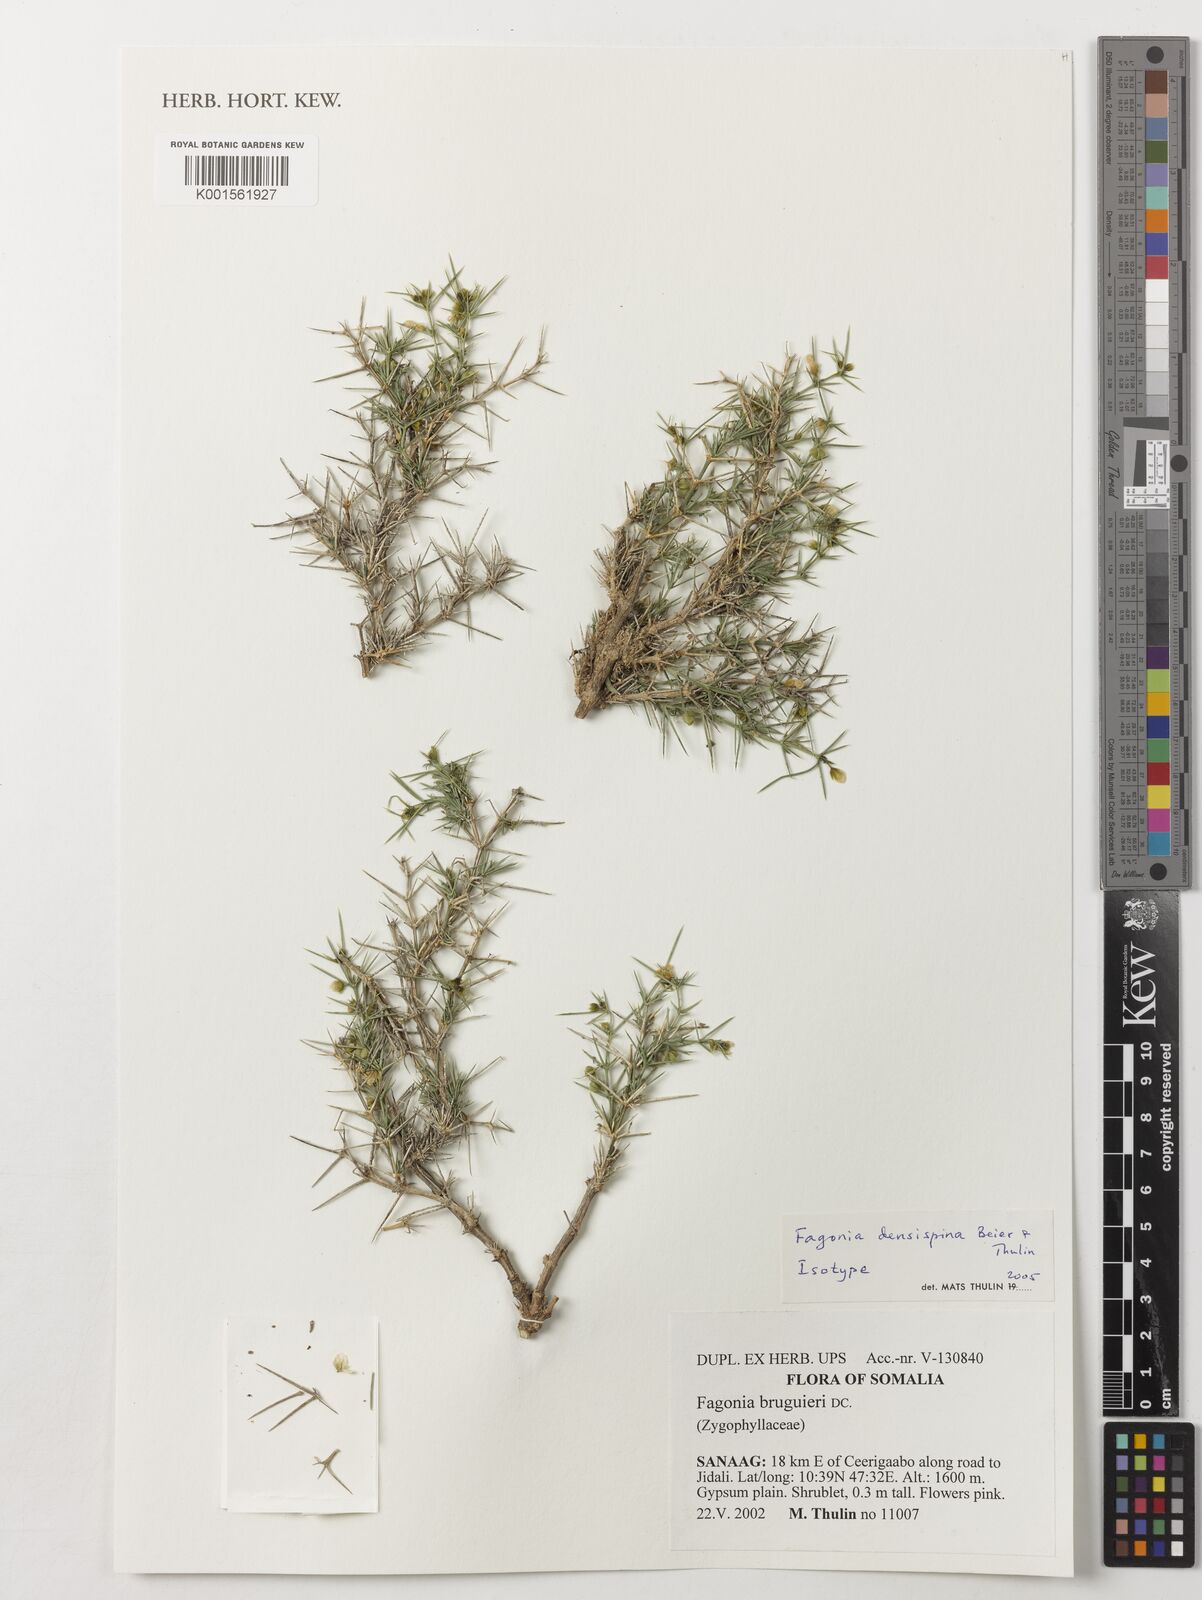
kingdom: Plantae
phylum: Tracheophyta
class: Magnoliopsida
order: Zygophyllales
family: Zygophyllaceae
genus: Fagonia
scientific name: Fagonia densispina
